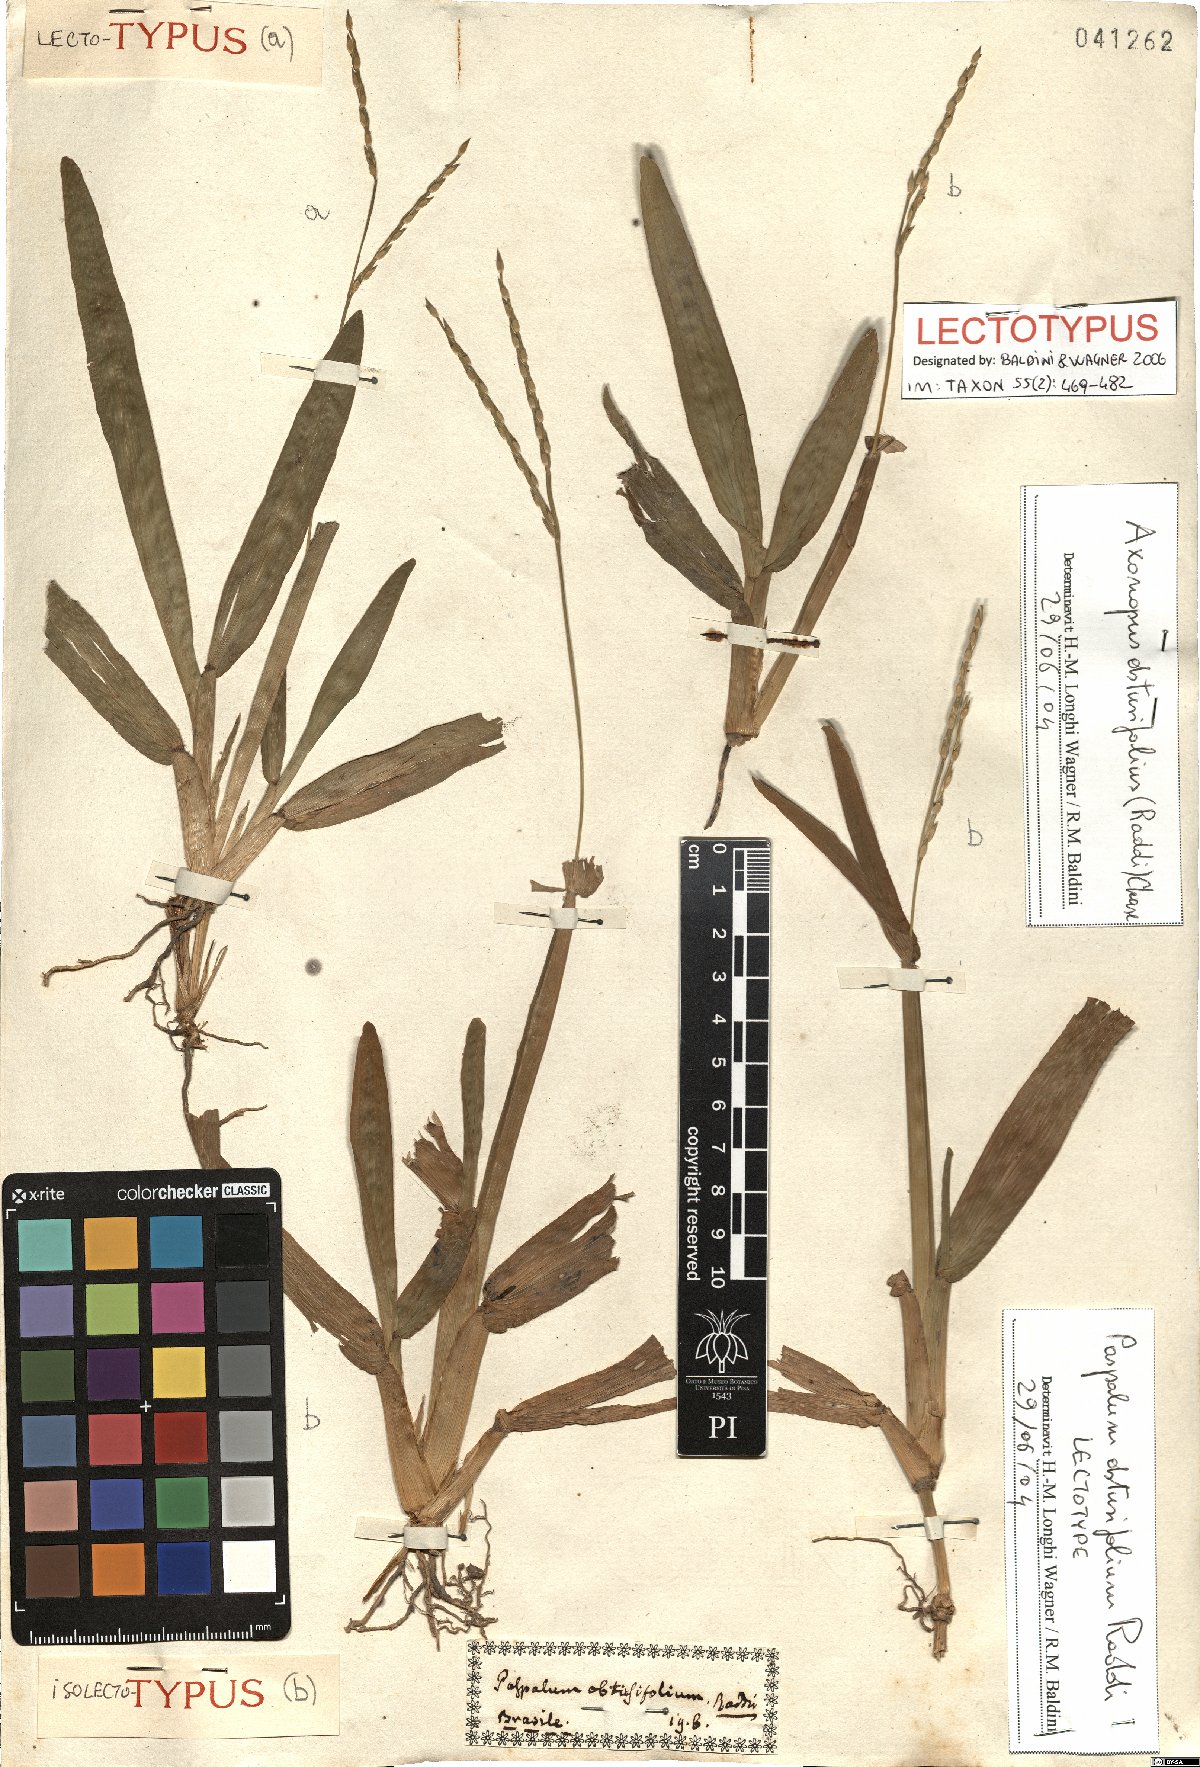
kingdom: Plantae
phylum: Tracheophyta
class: Liliopsida
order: Poales
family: Poaceae
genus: Axonopus
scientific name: Axonopus furcatus
